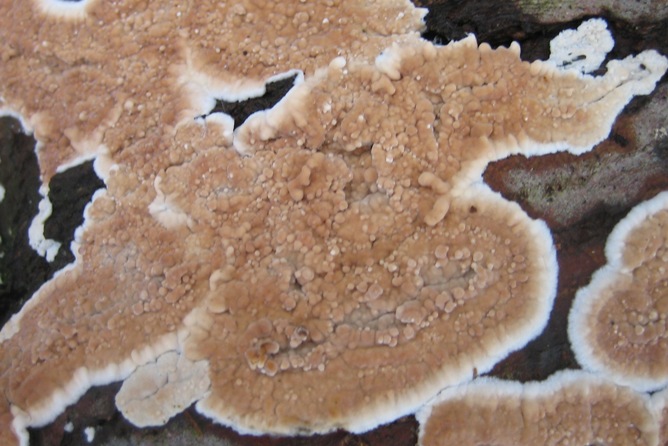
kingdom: Fungi
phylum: Basidiomycota
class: Agaricomycetes
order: Agaricales
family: Physalacriaceae
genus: Cylindrobasidium
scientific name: Cylindrobasidium evolvens
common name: sprækkehinde
